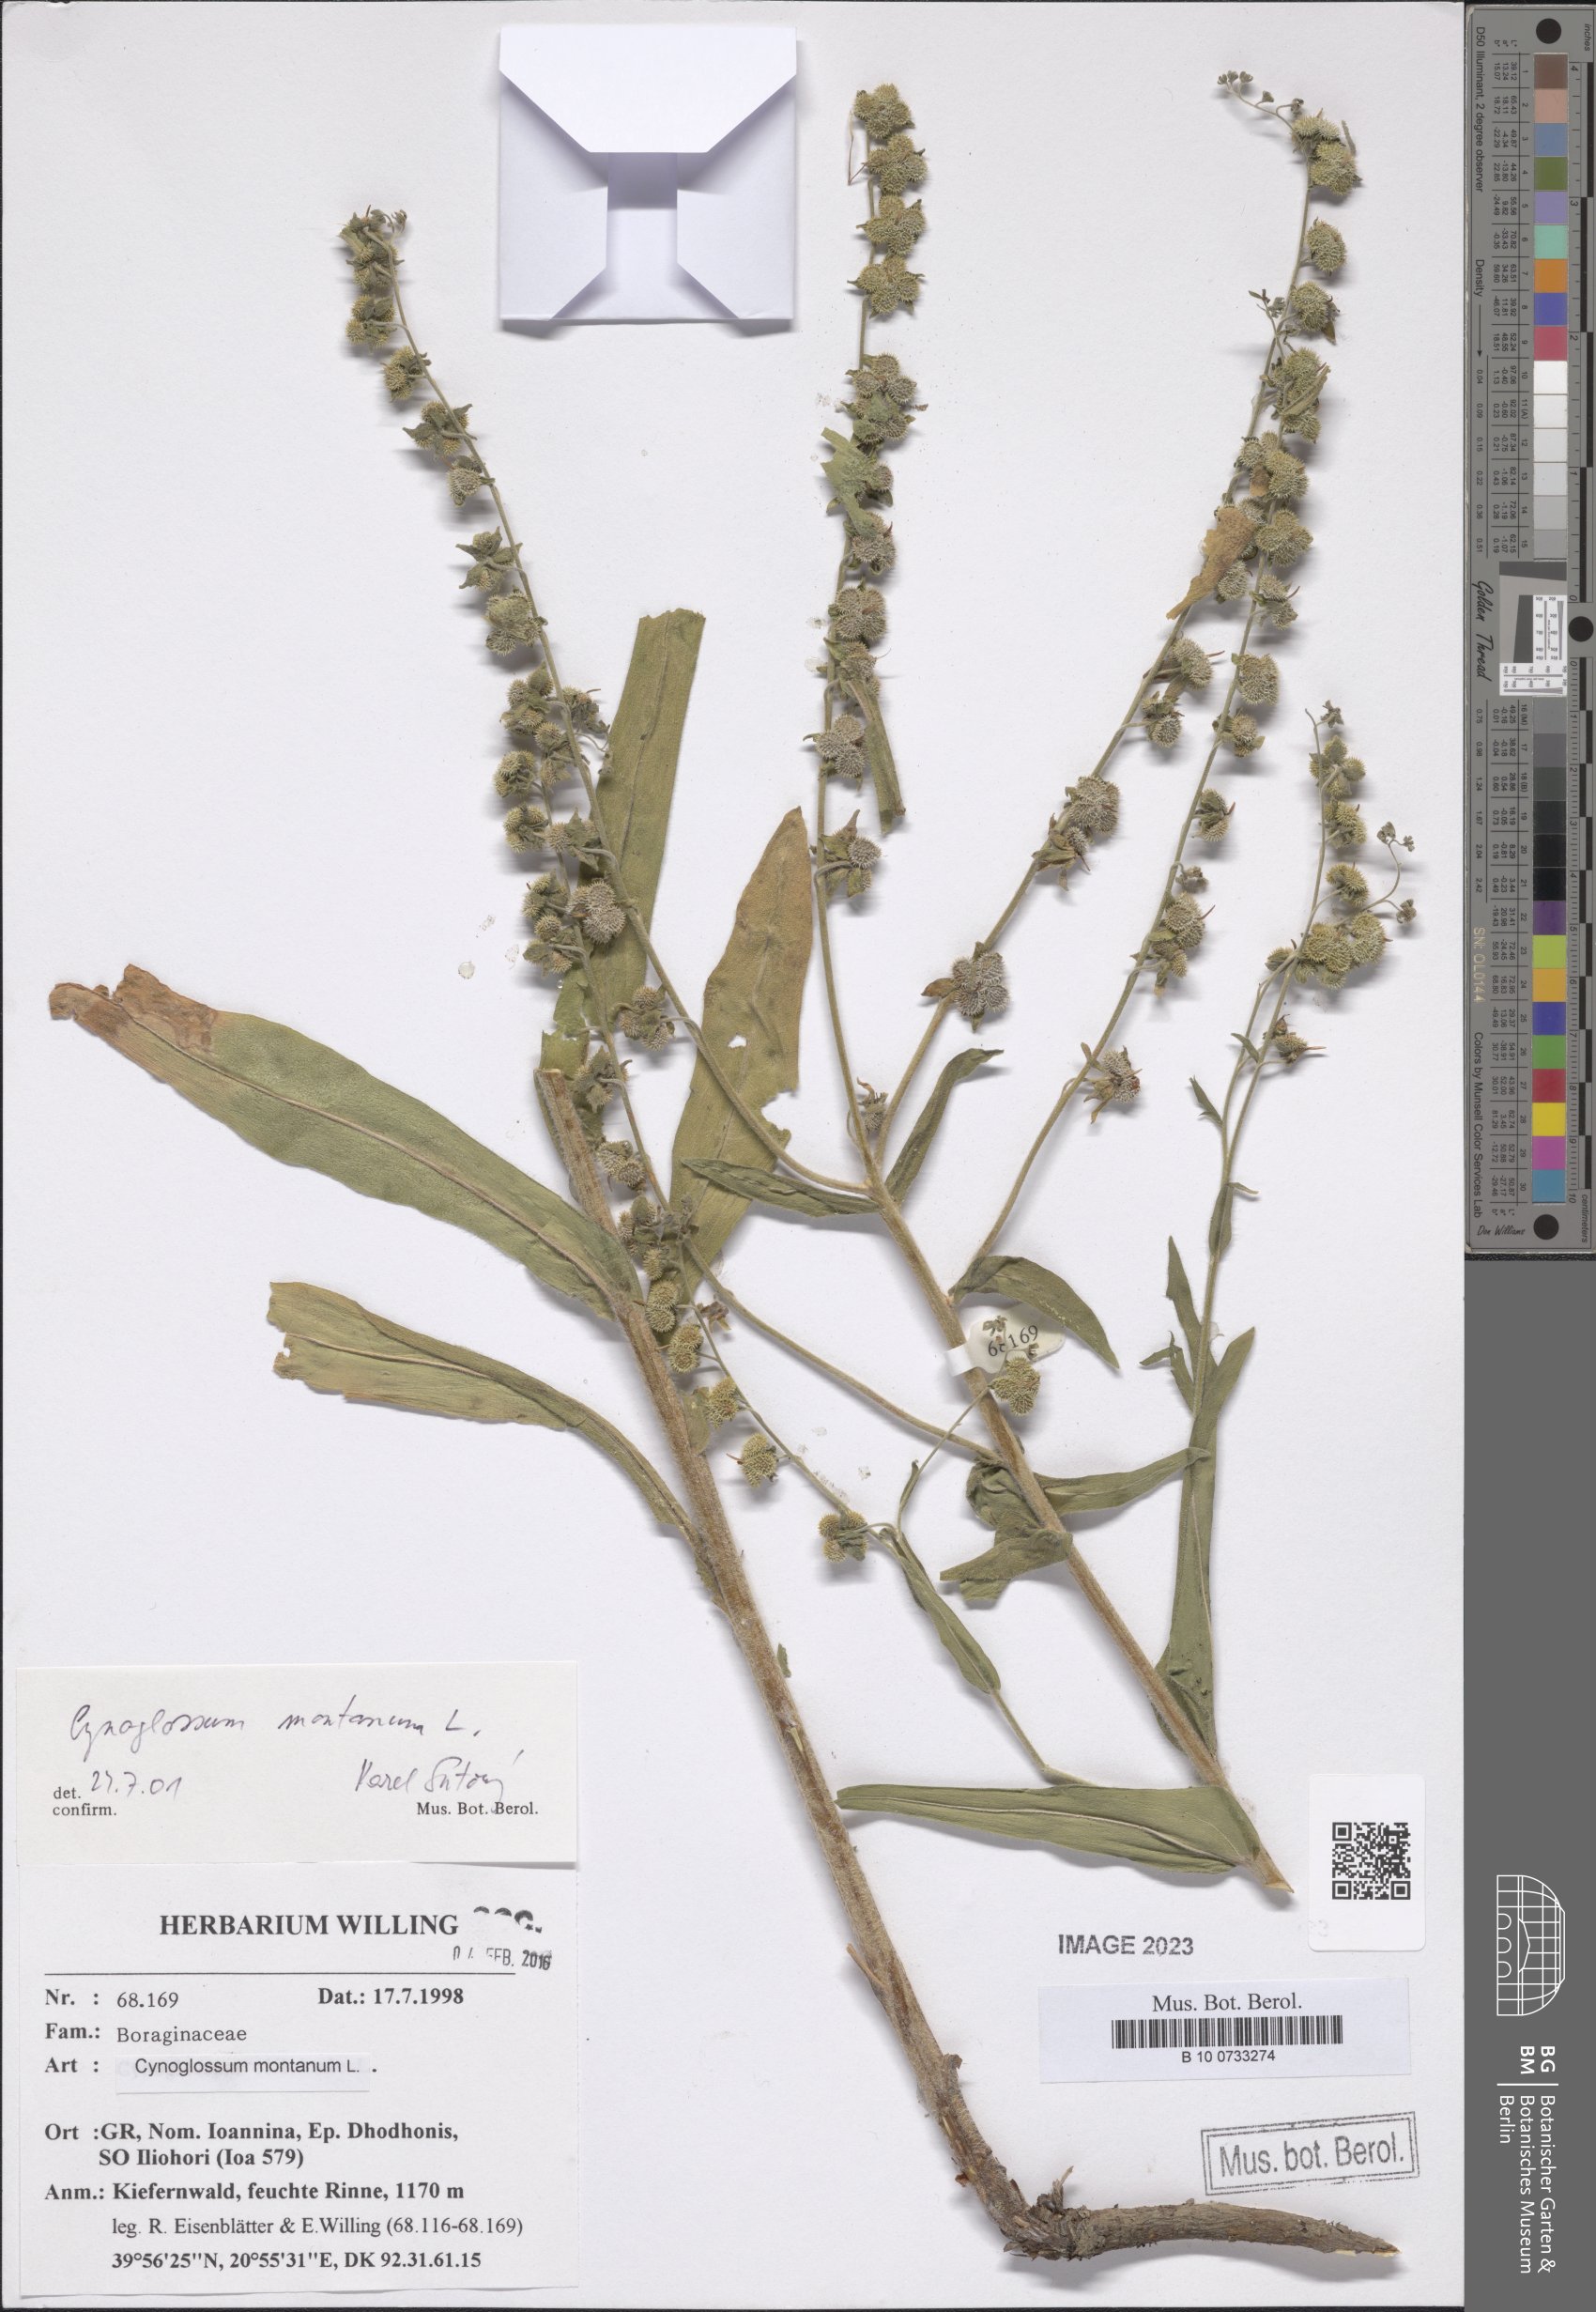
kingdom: Plantae
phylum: Tracheophyta
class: Magnoliopsida
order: Boraginales
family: Boraginaceae
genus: Cynoglossum
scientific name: Cynoglossum montanum
